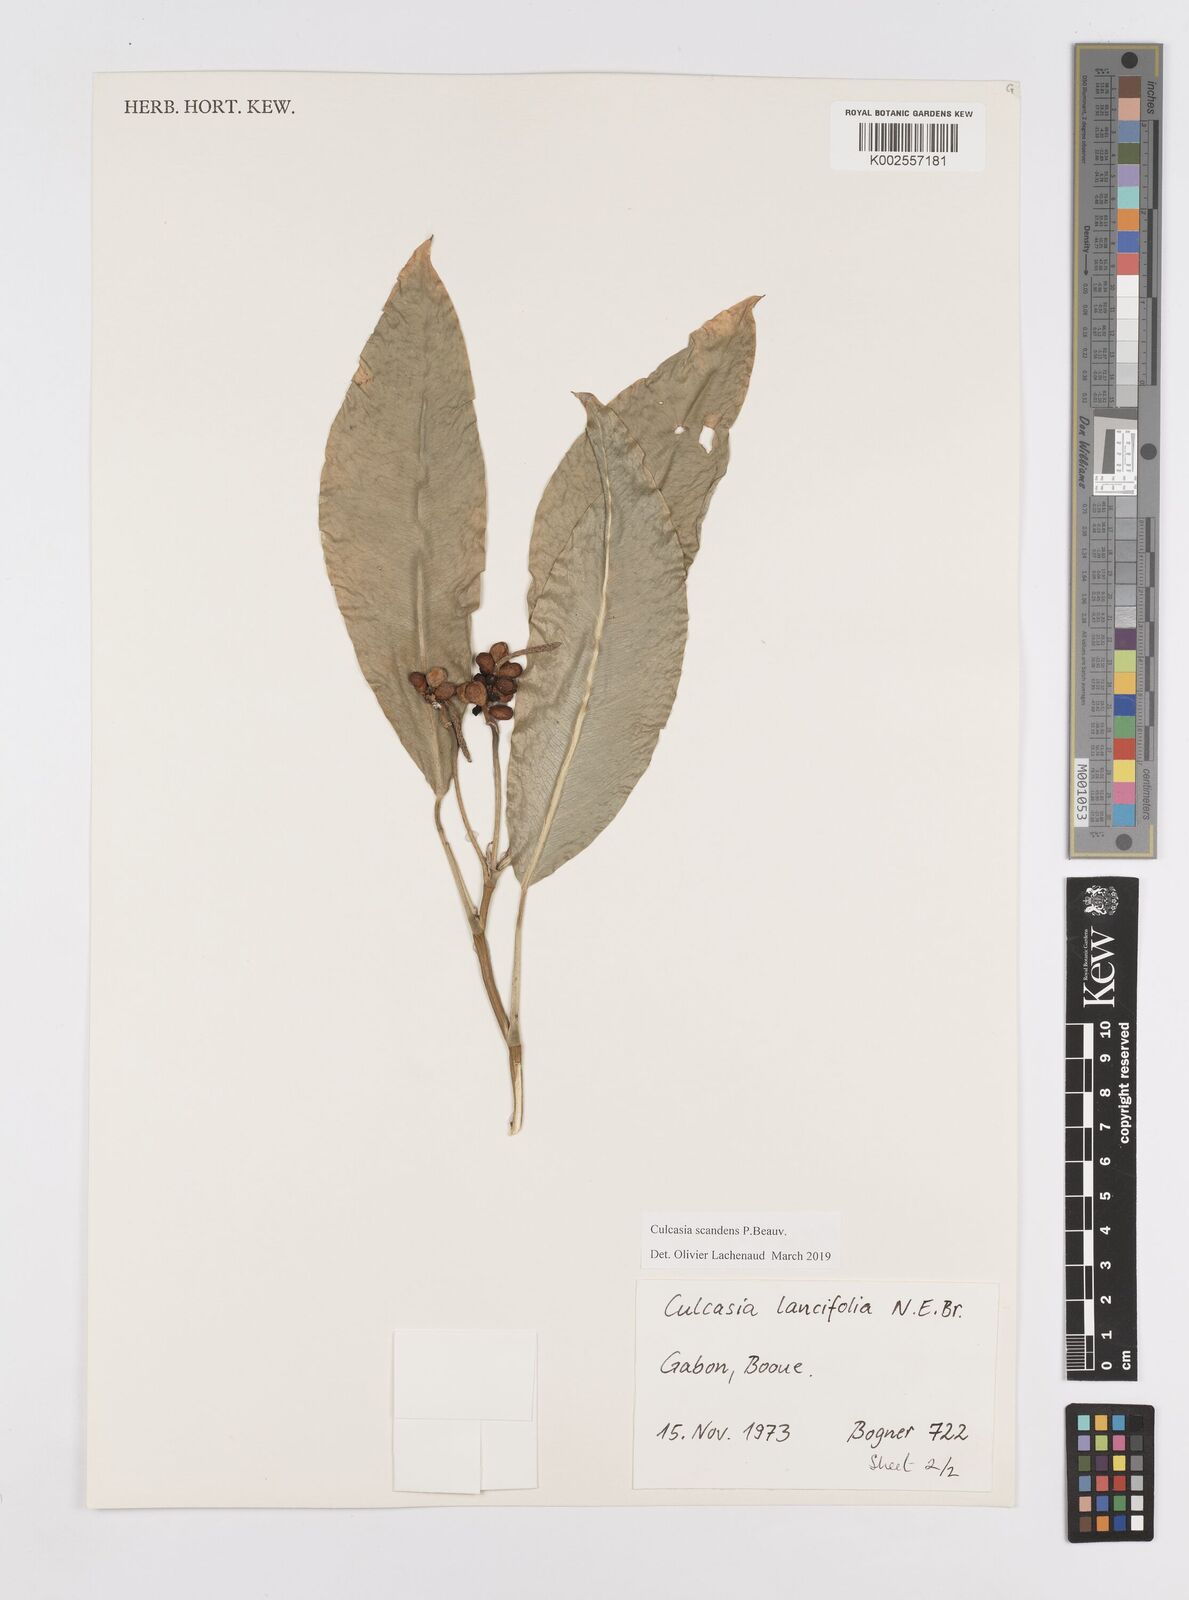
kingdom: Plantae
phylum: Tracheophyta
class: Liliopsida
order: Alismatales
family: Araceae
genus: Culcasia
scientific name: Culcasia scandens
